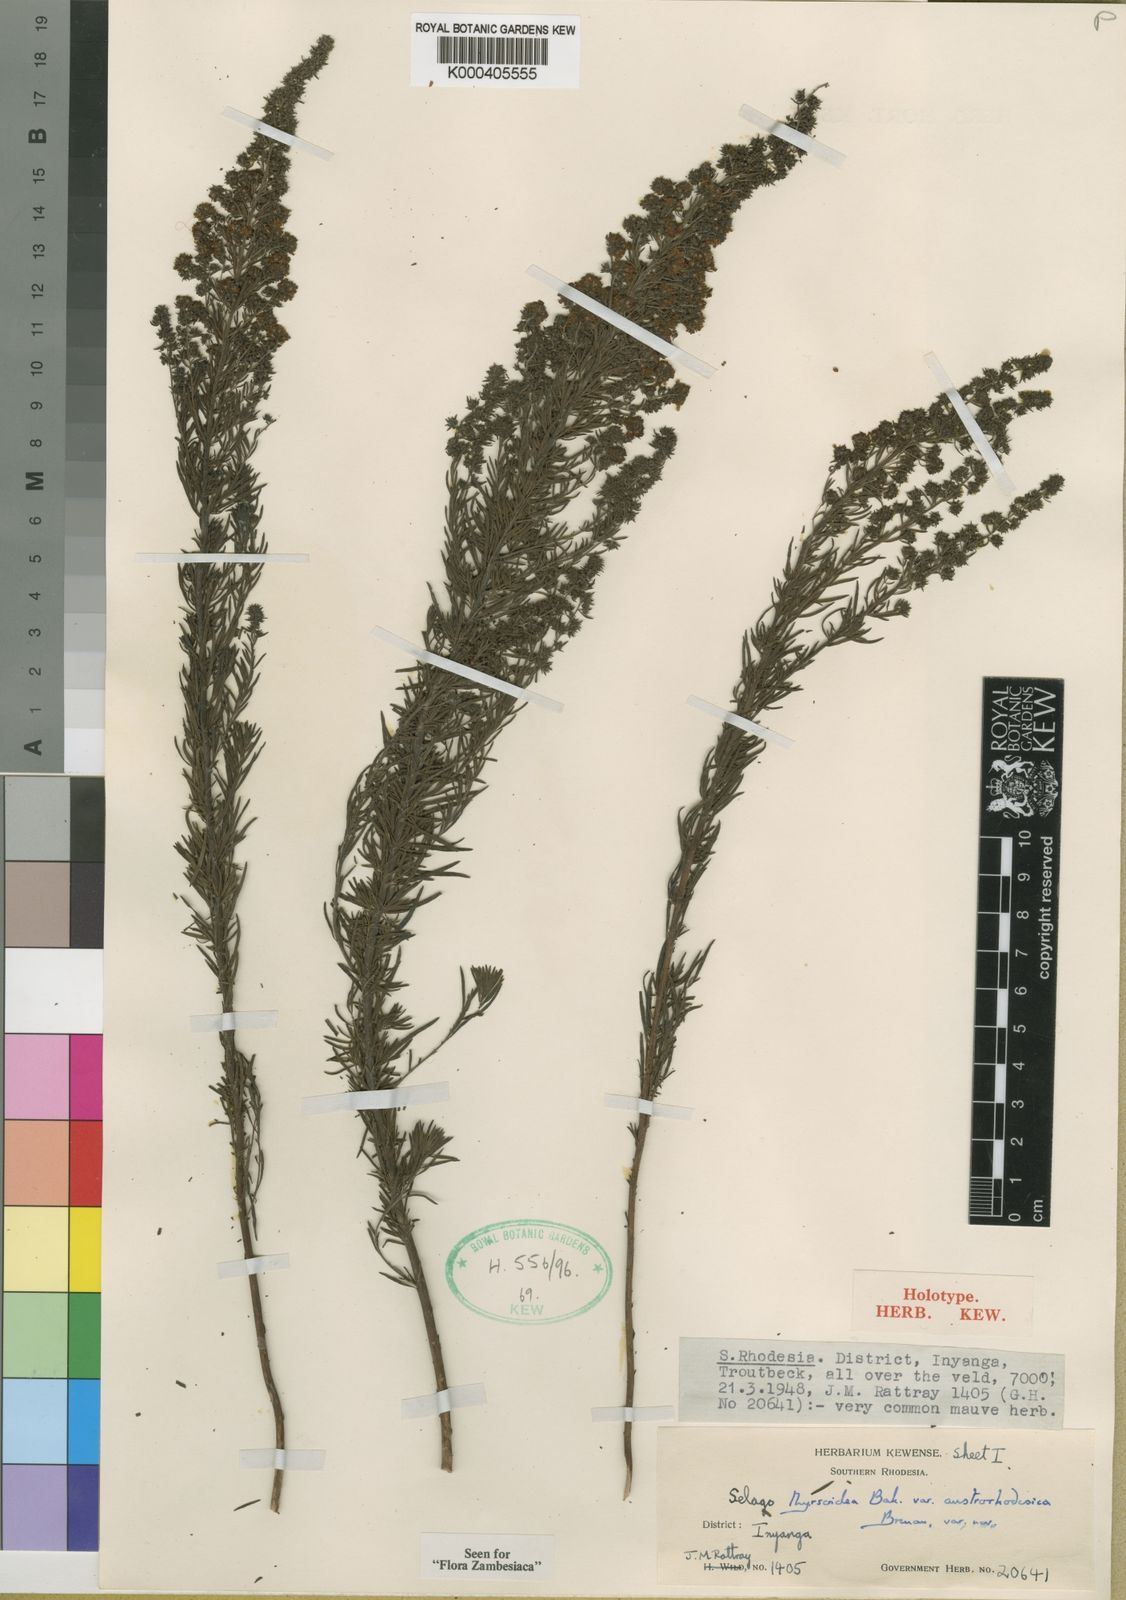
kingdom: Plantae
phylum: Tracheophyta
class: Magnoliopsida
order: Lamiales
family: Scrophulariaceae
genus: Selago
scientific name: Selago thyrsoidea
